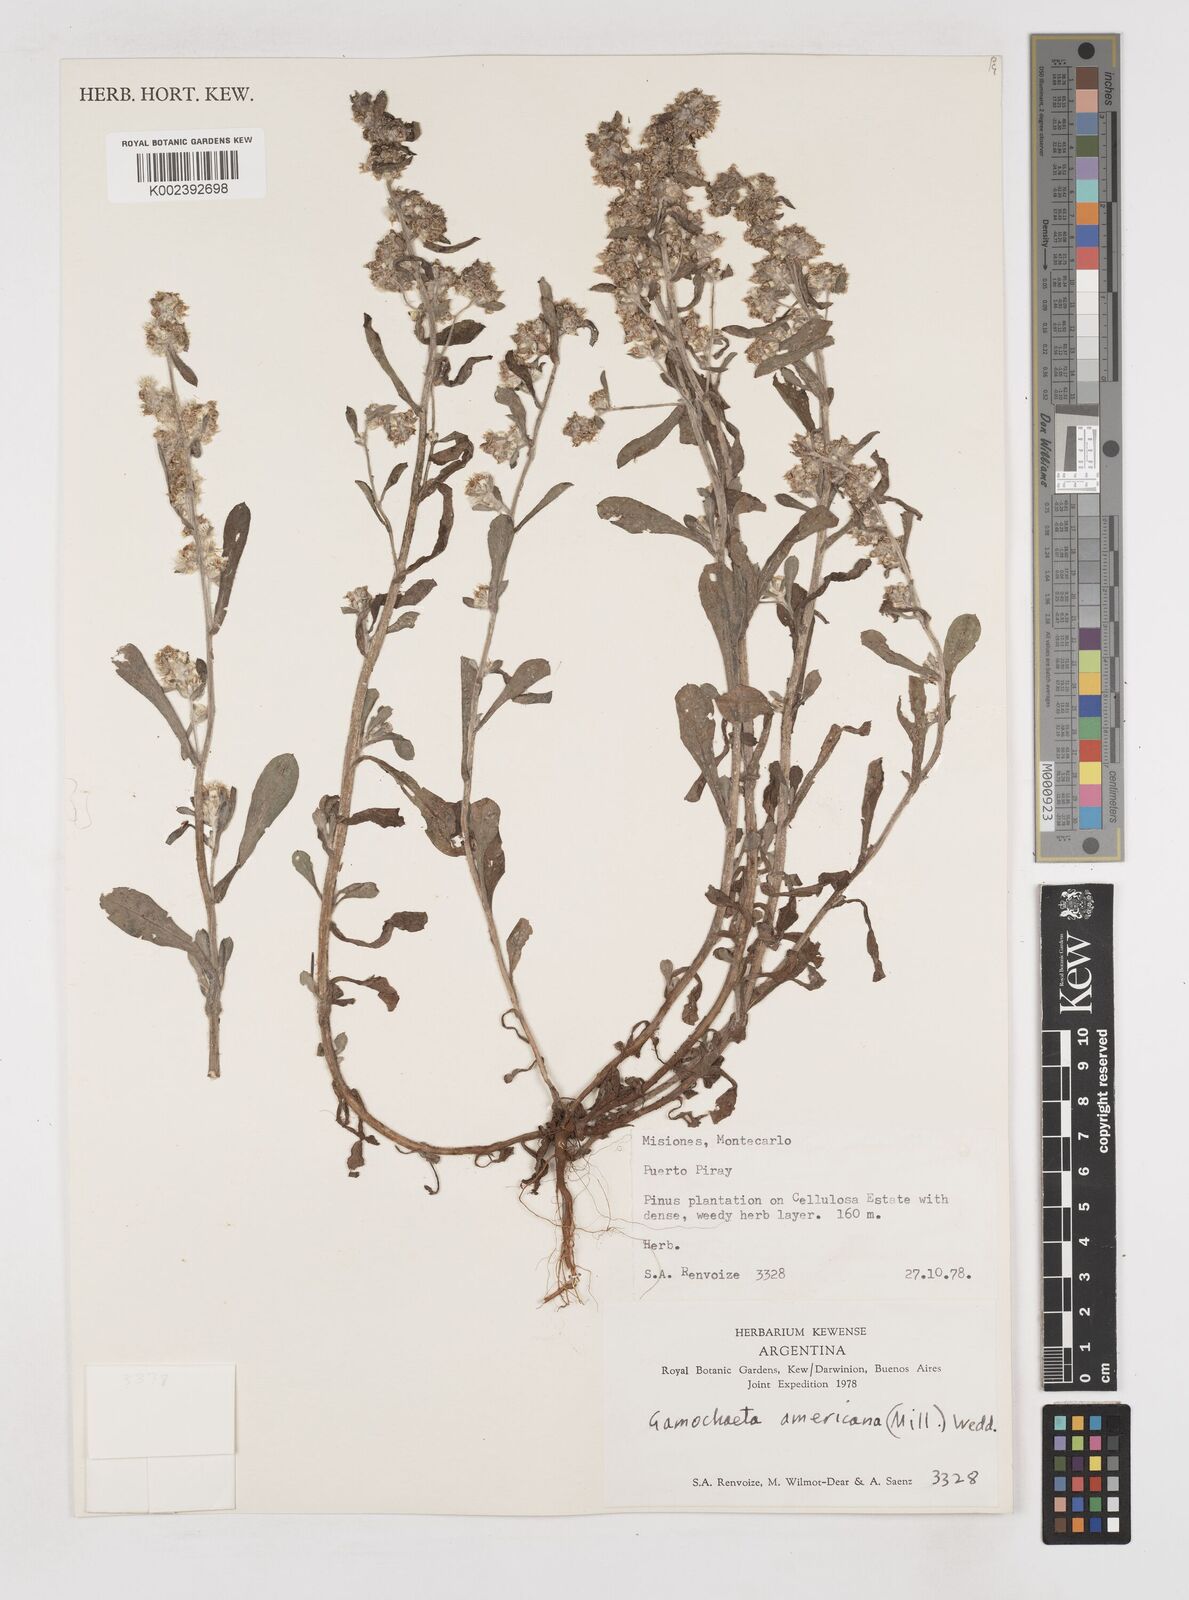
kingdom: Plantae
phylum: Tracheophyta
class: Magnoliopsida
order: Asterales
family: Asteraceae
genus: Anaphalis
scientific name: Anaphalis margaritacea
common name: Pearly everlasting
